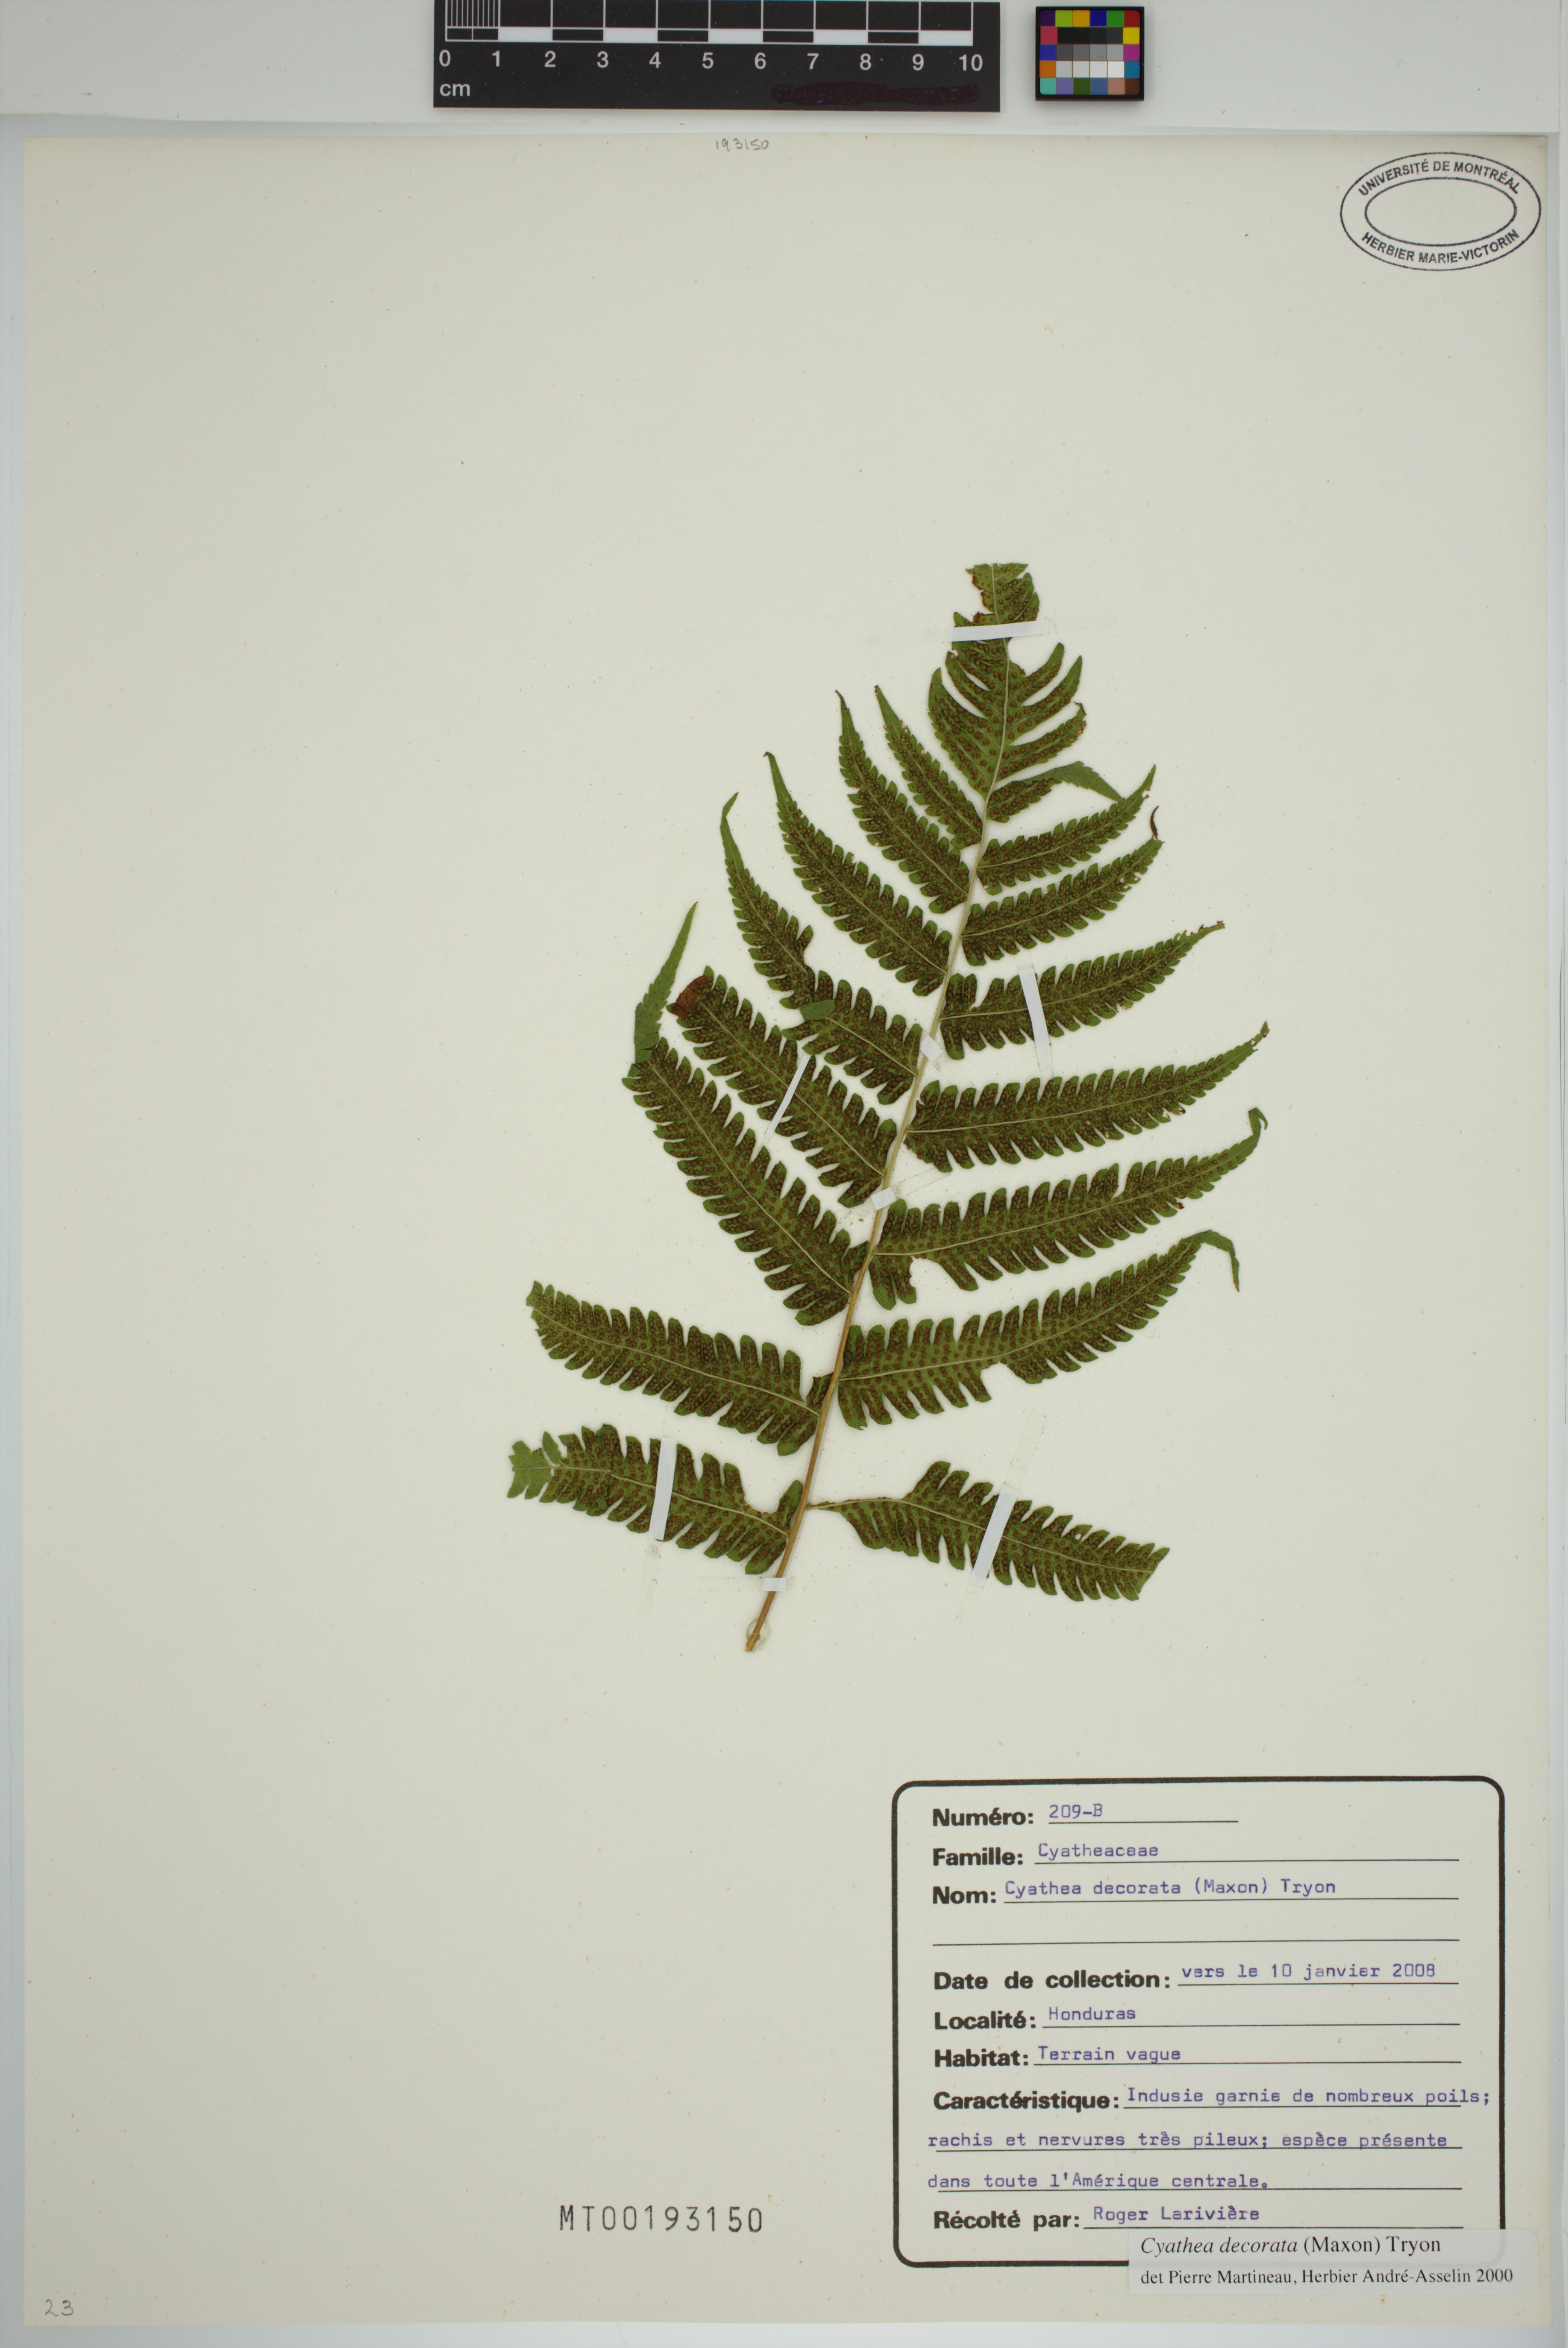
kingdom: Plantae
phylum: Tracheophyta
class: Polypodiopsida
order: Cyatheales
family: Cyatheaceae
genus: Cyathea
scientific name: Cyathea decorata
